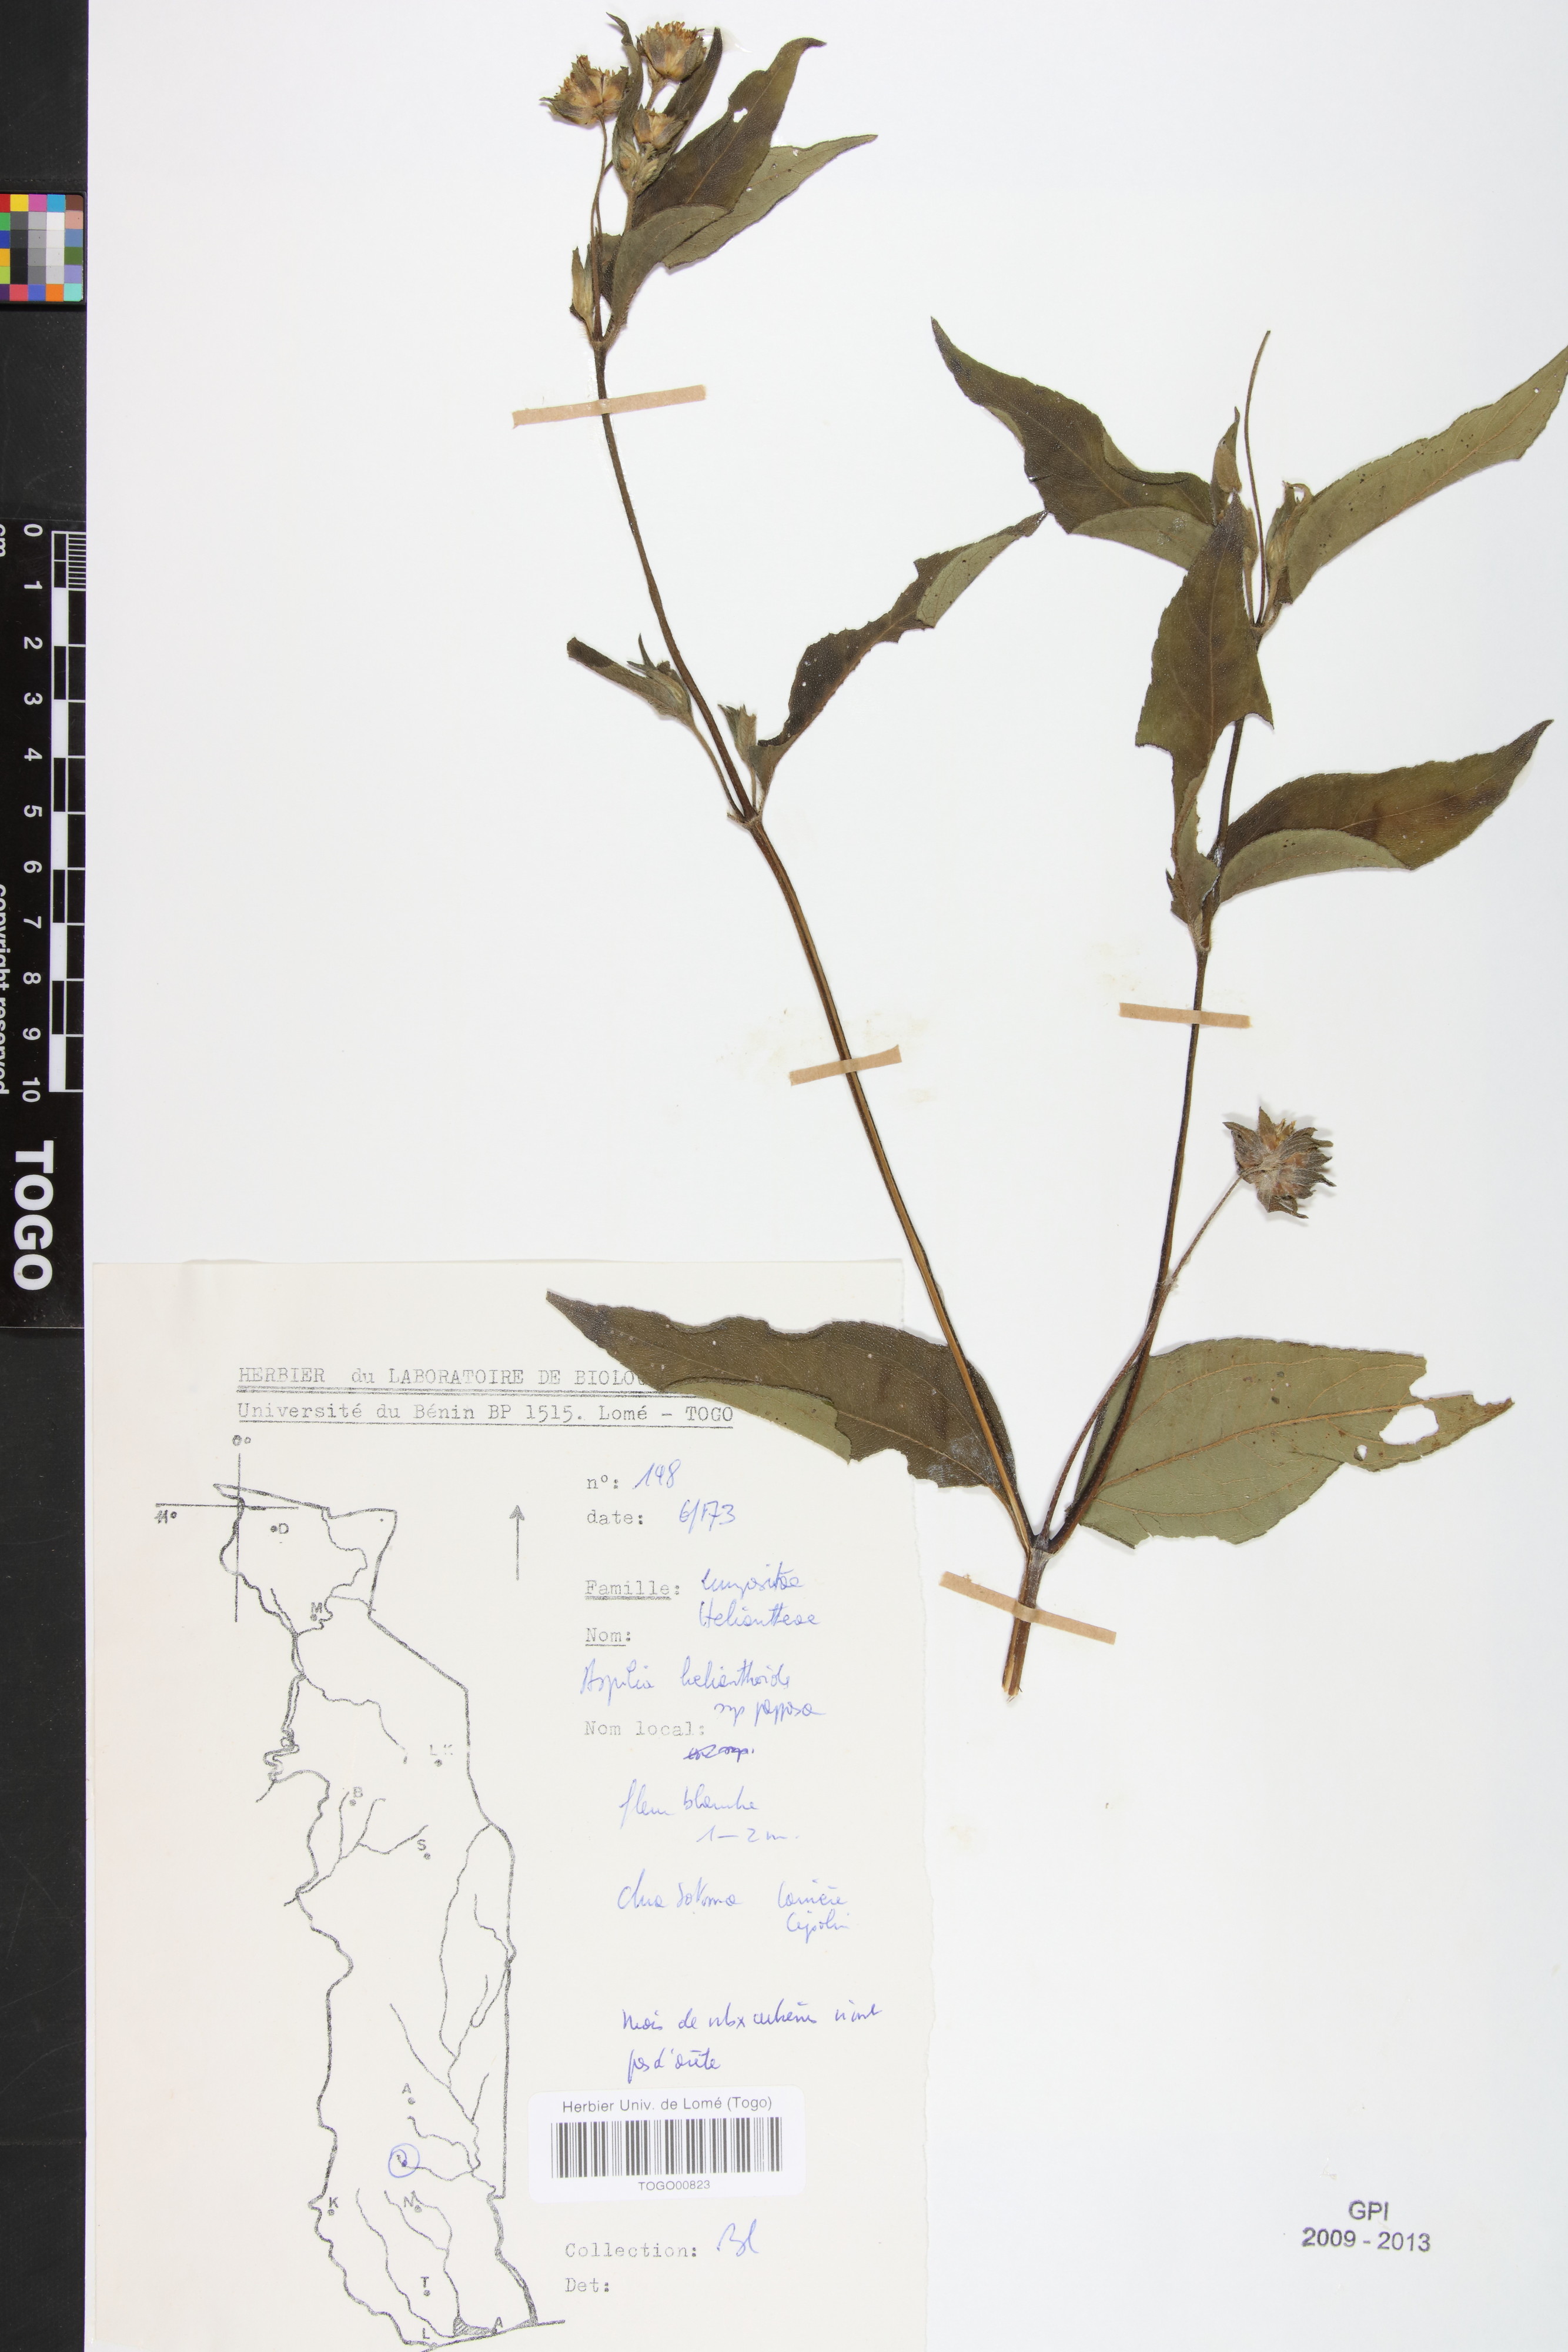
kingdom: Plantae
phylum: Tracheophyta
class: Magnoliopsida
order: Asterales
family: Asteraceae
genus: Aspilia
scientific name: Aspilia helianthoides
